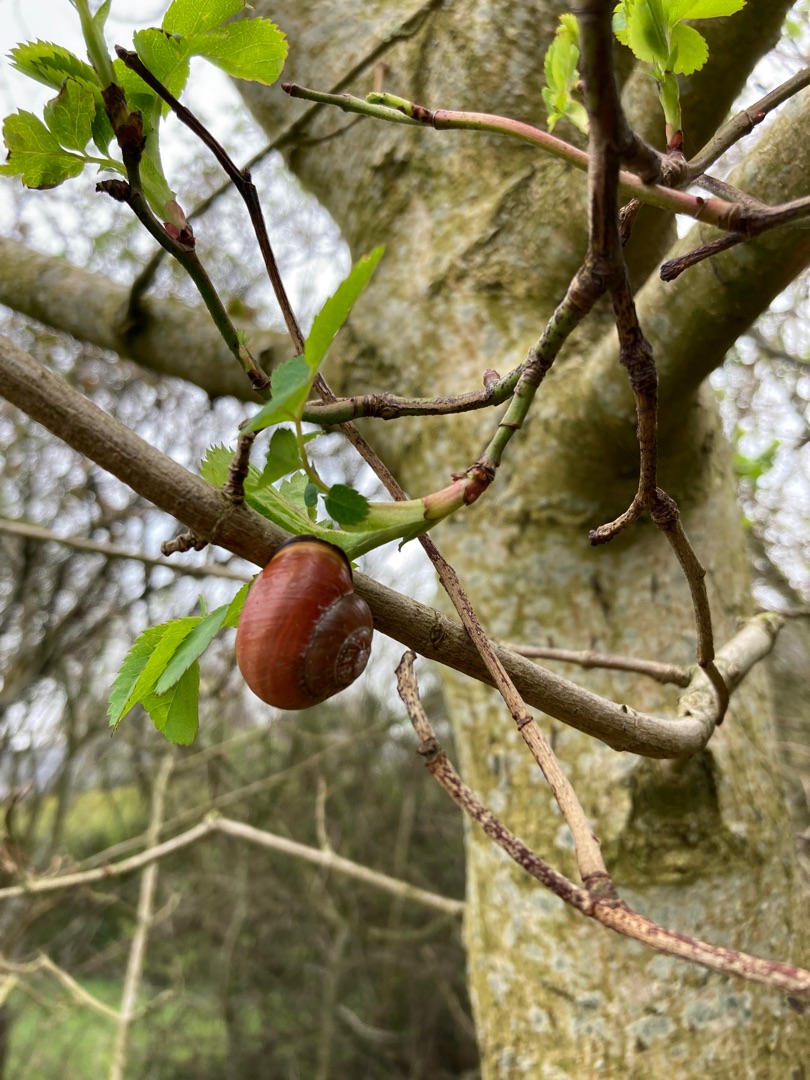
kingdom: Animalia
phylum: Mollusca
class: Gastropoda
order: Stylommatophora
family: Helicidae
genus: Cepaea
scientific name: Cepaea nemoralis
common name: Lundsnegl
